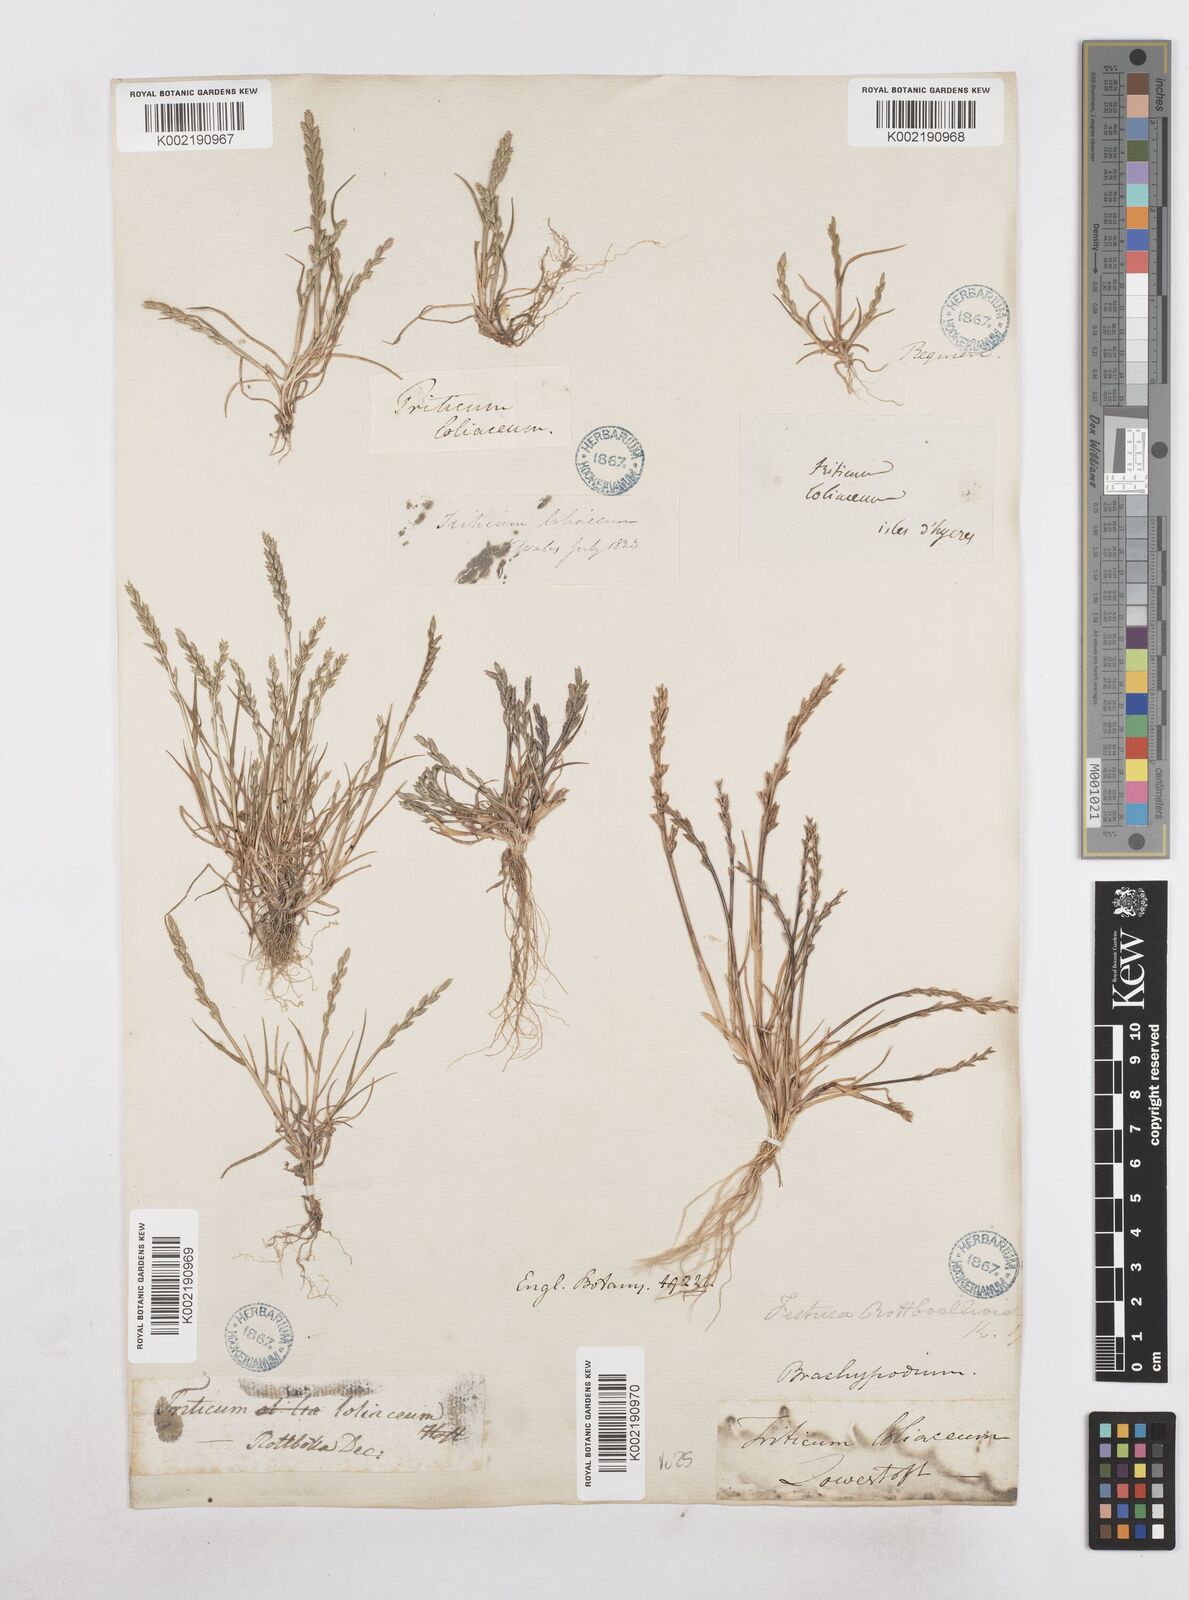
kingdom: Plantae
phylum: Tracheophyta
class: Liliopsida
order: Poales
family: Poaceae
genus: Catapodium
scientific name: Catapodium marinum
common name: Sea fern-grass
